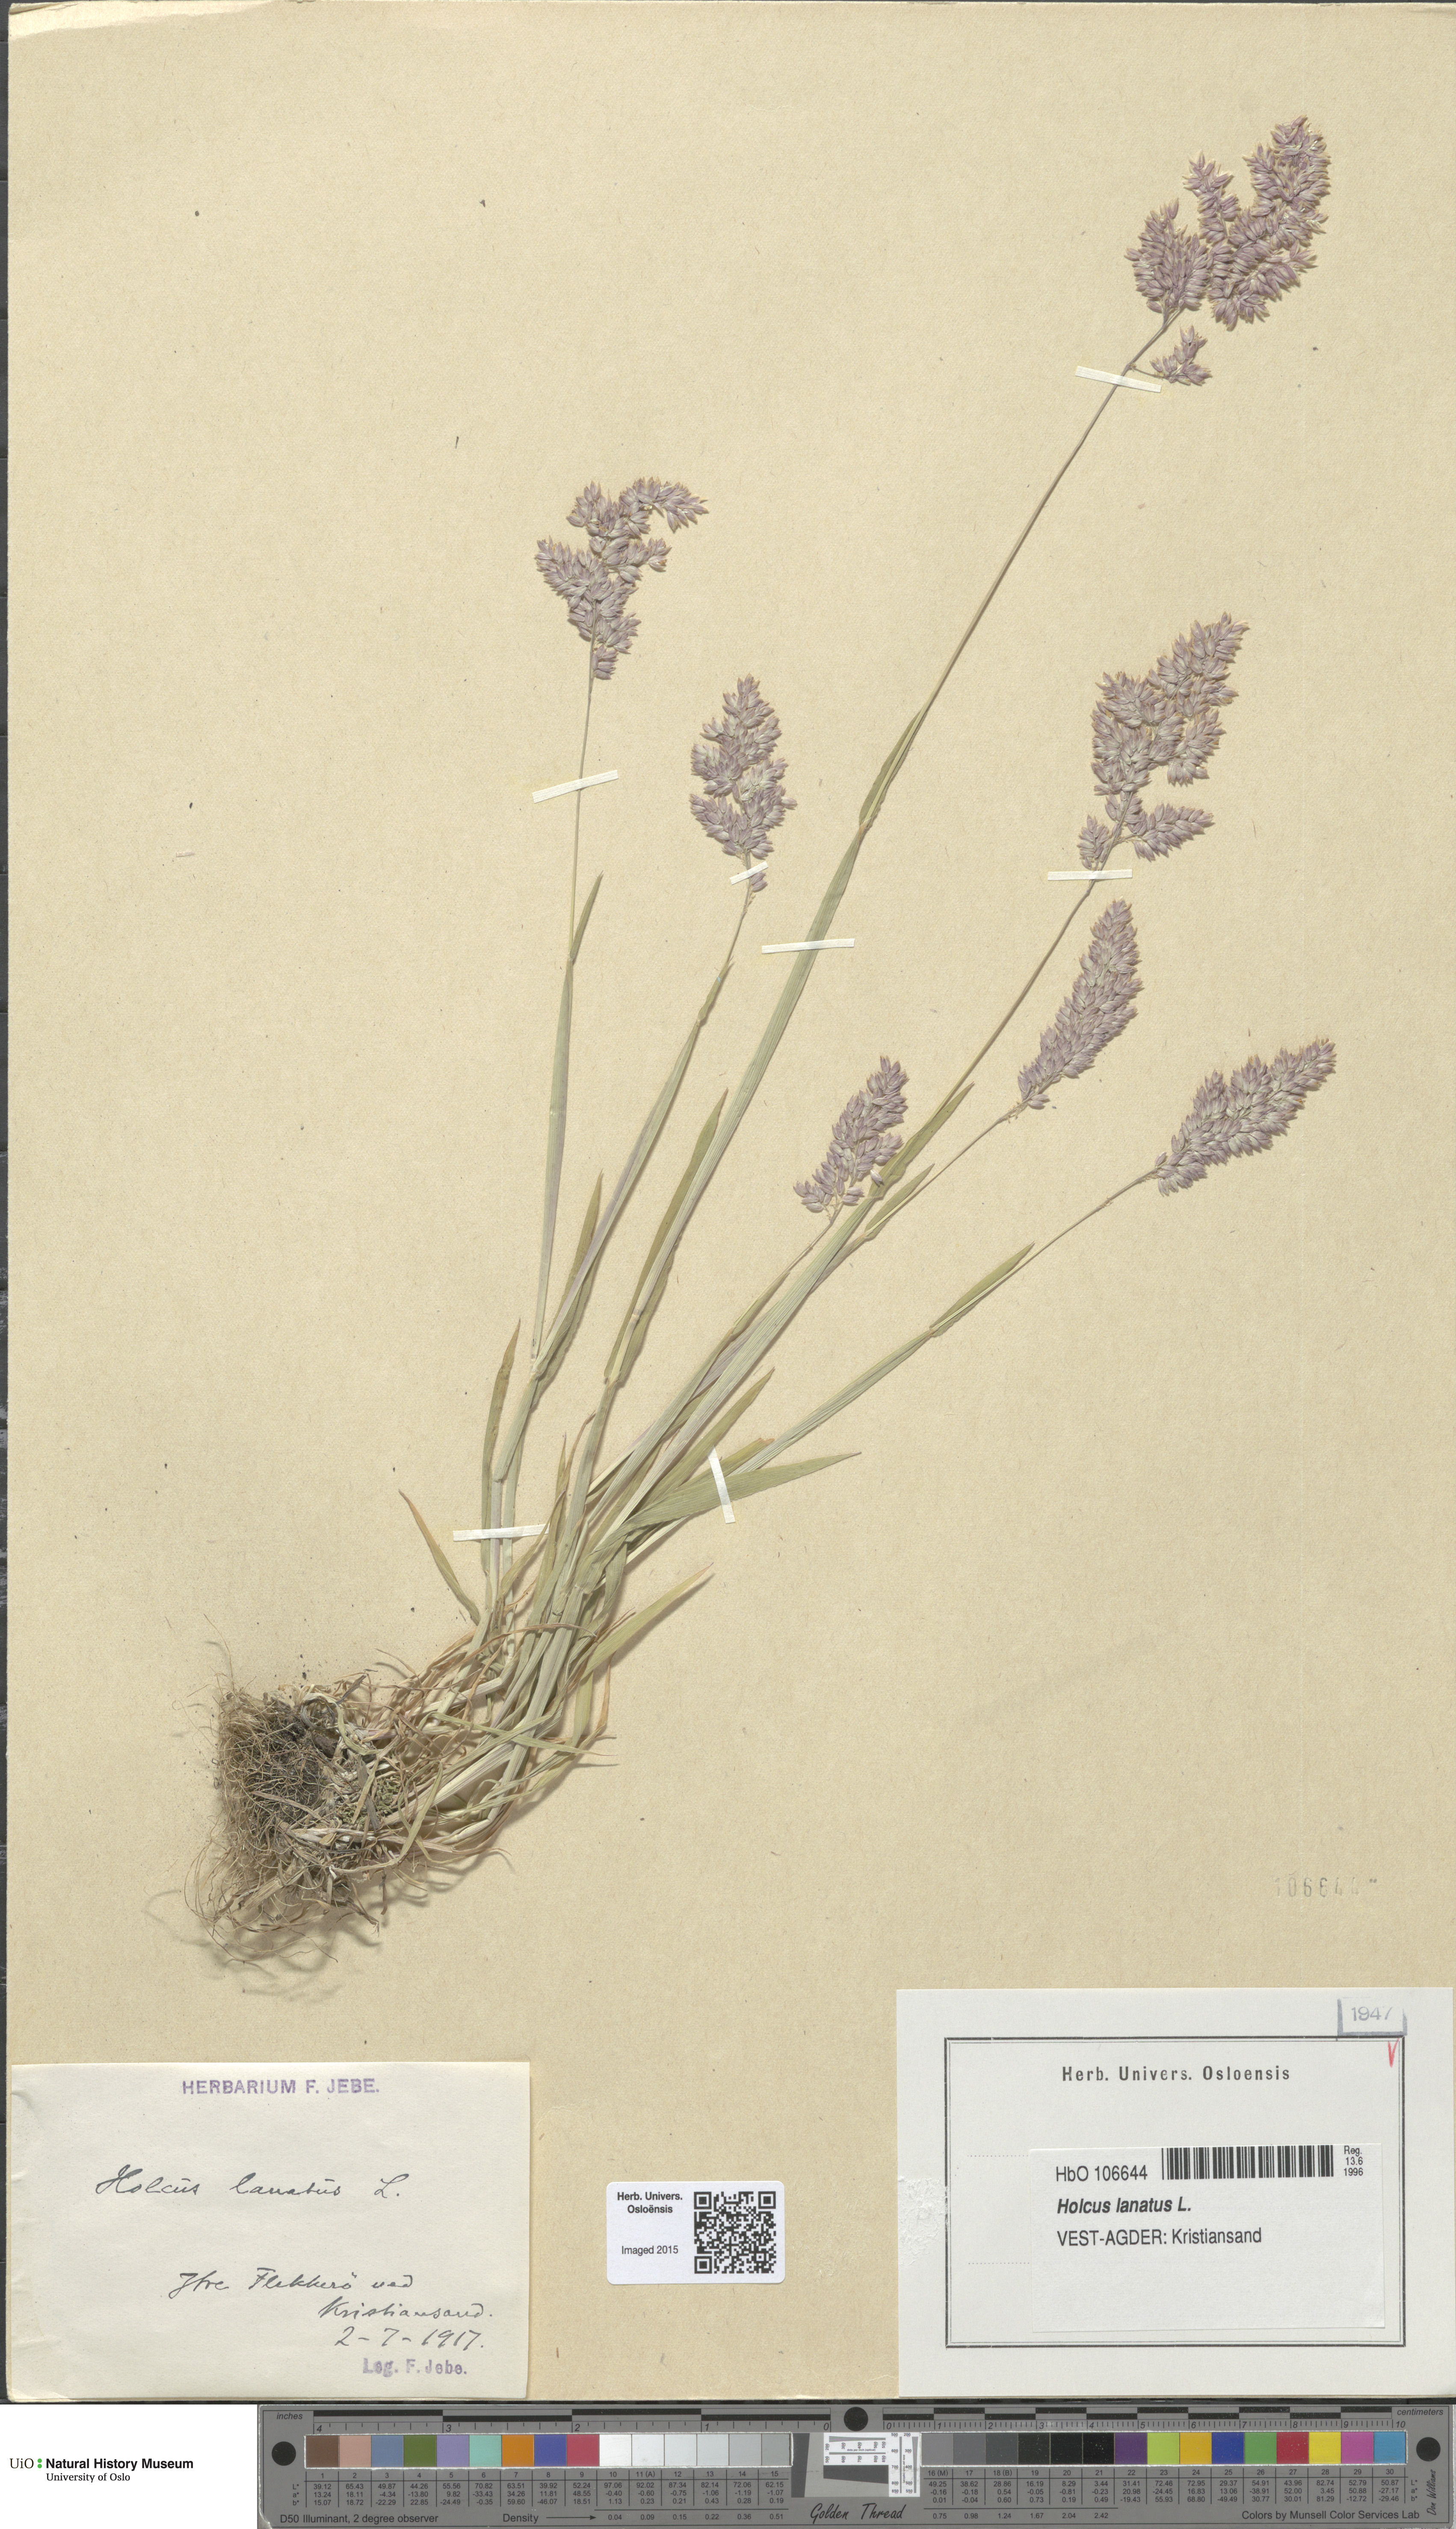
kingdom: Plantae
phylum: Tracheophyta
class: Liliopsida
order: Poales
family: Poaceae
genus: Holcus
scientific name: Holcus lanatus
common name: Yorkshire-fog
